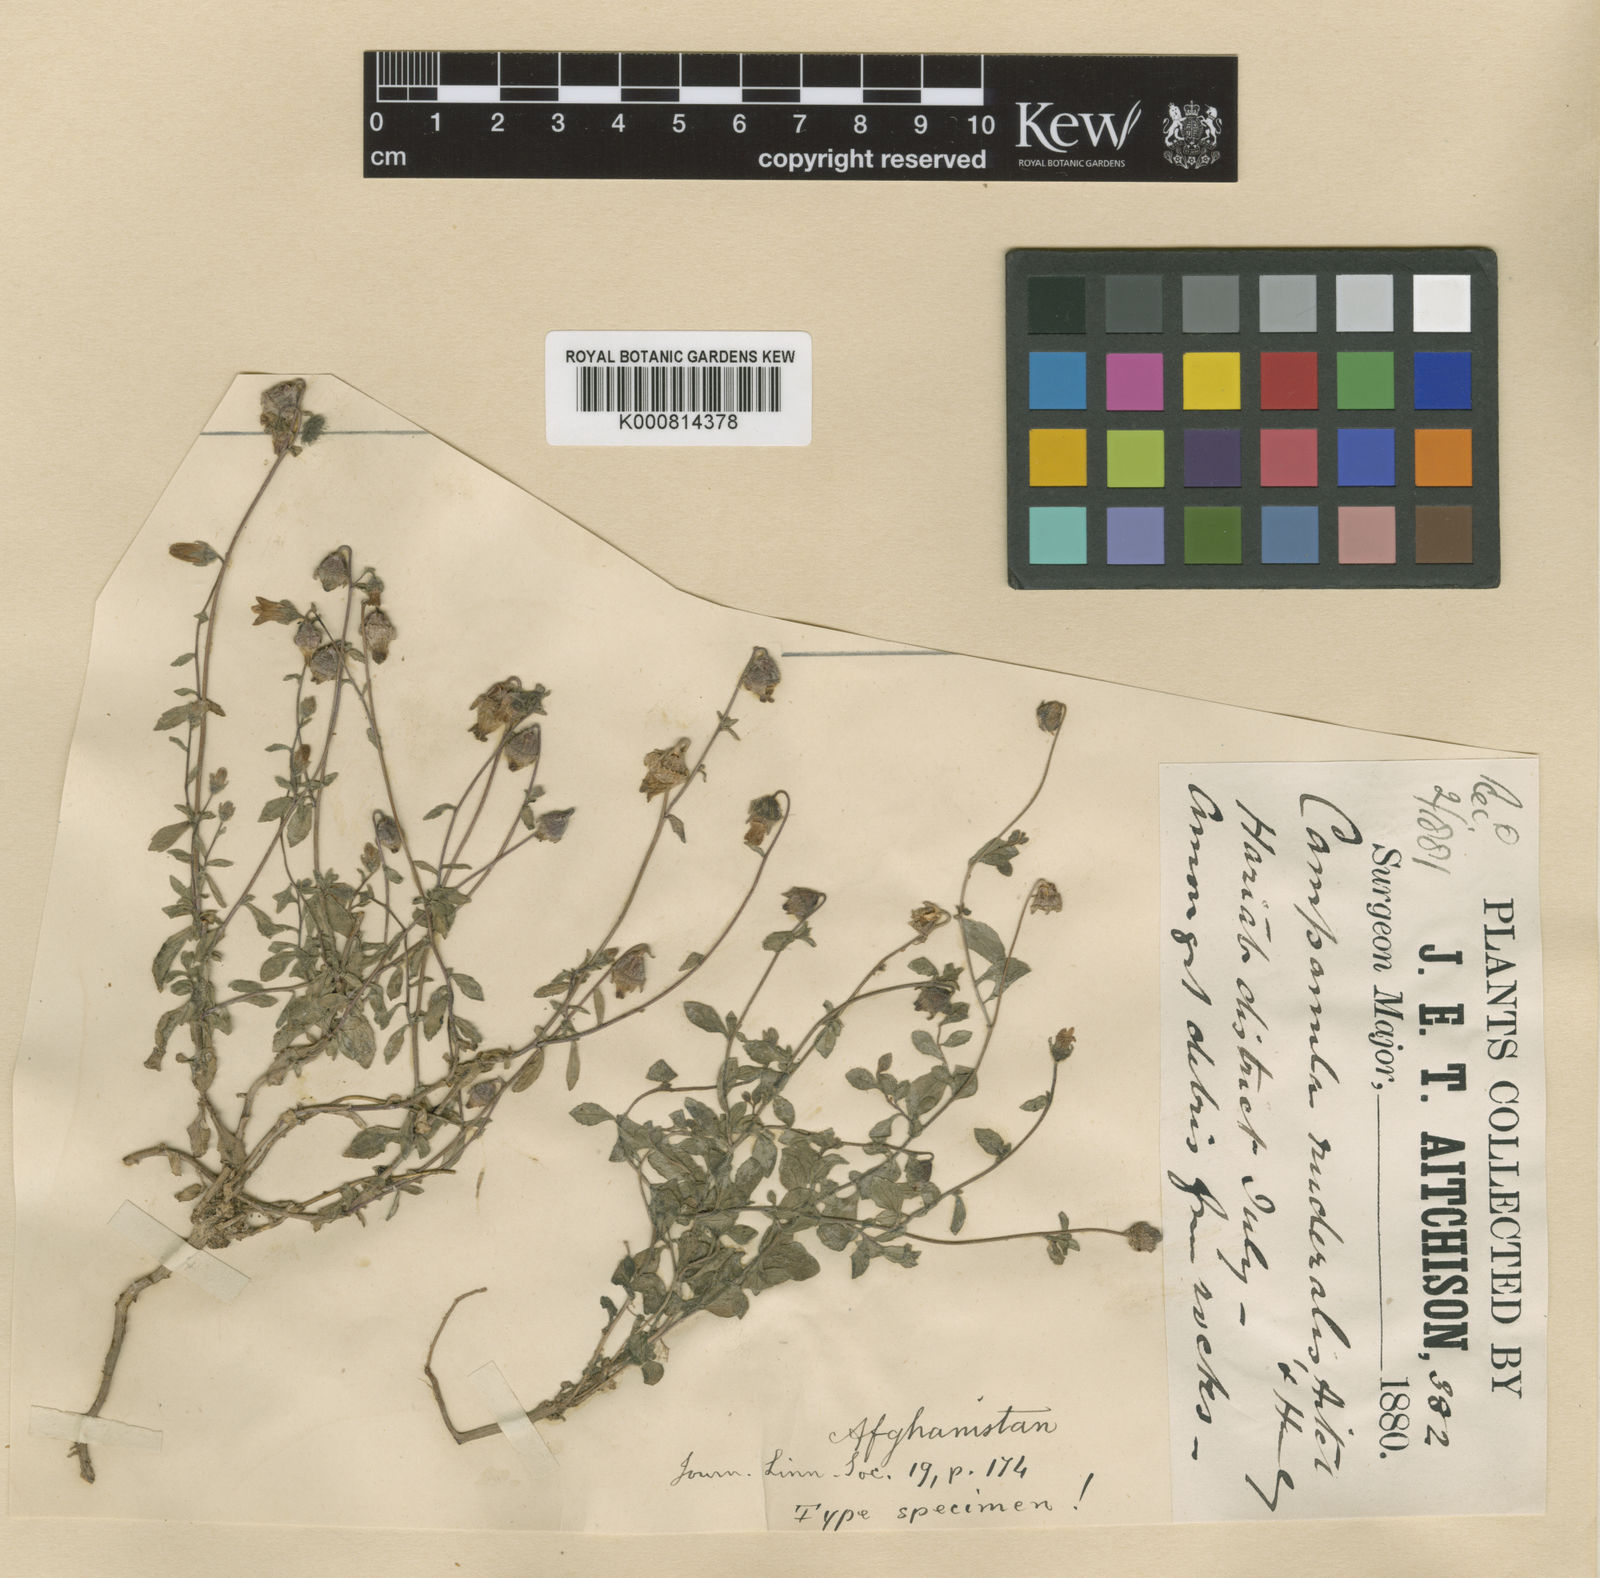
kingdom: Plantae
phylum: Tracheophyta
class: Magnoliopsida
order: Asterales
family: Campanulaceae
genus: Campanula
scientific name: Campanula cashmeriana
